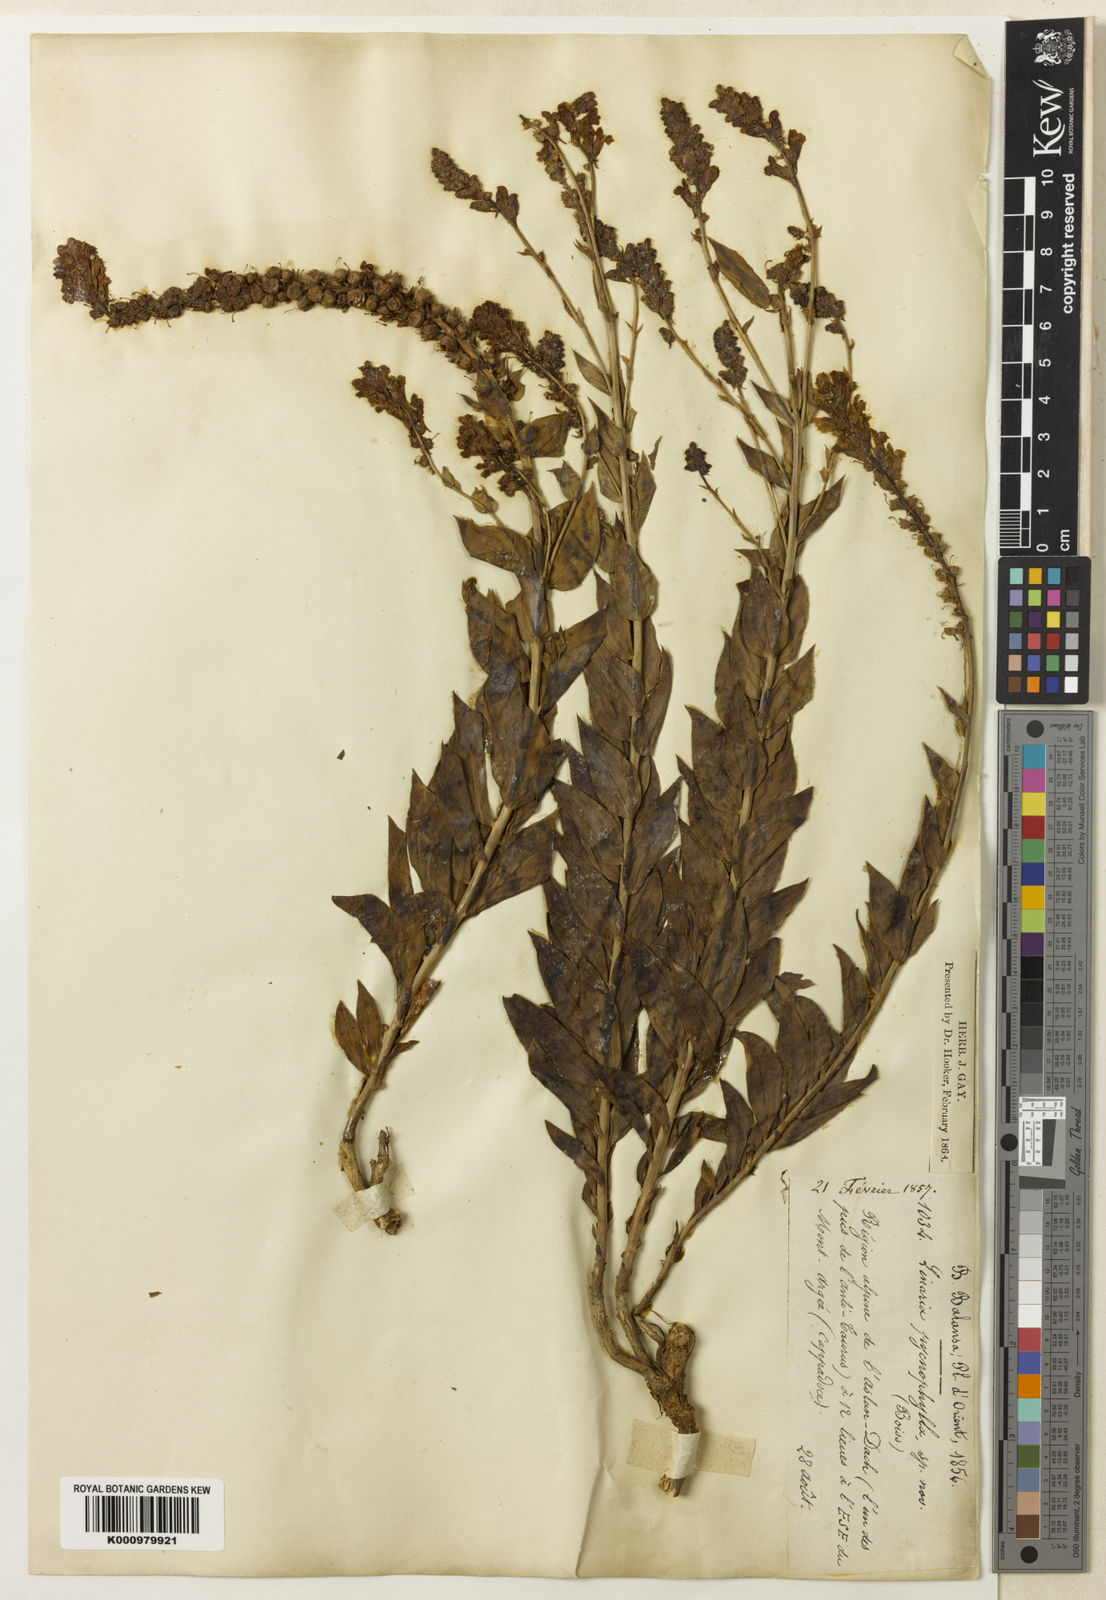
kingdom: Plantae
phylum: Tracheophyta
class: Magnoliopsida
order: Lamiales
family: Plantaginaceae
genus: Linaria
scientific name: Linaria kurdica
